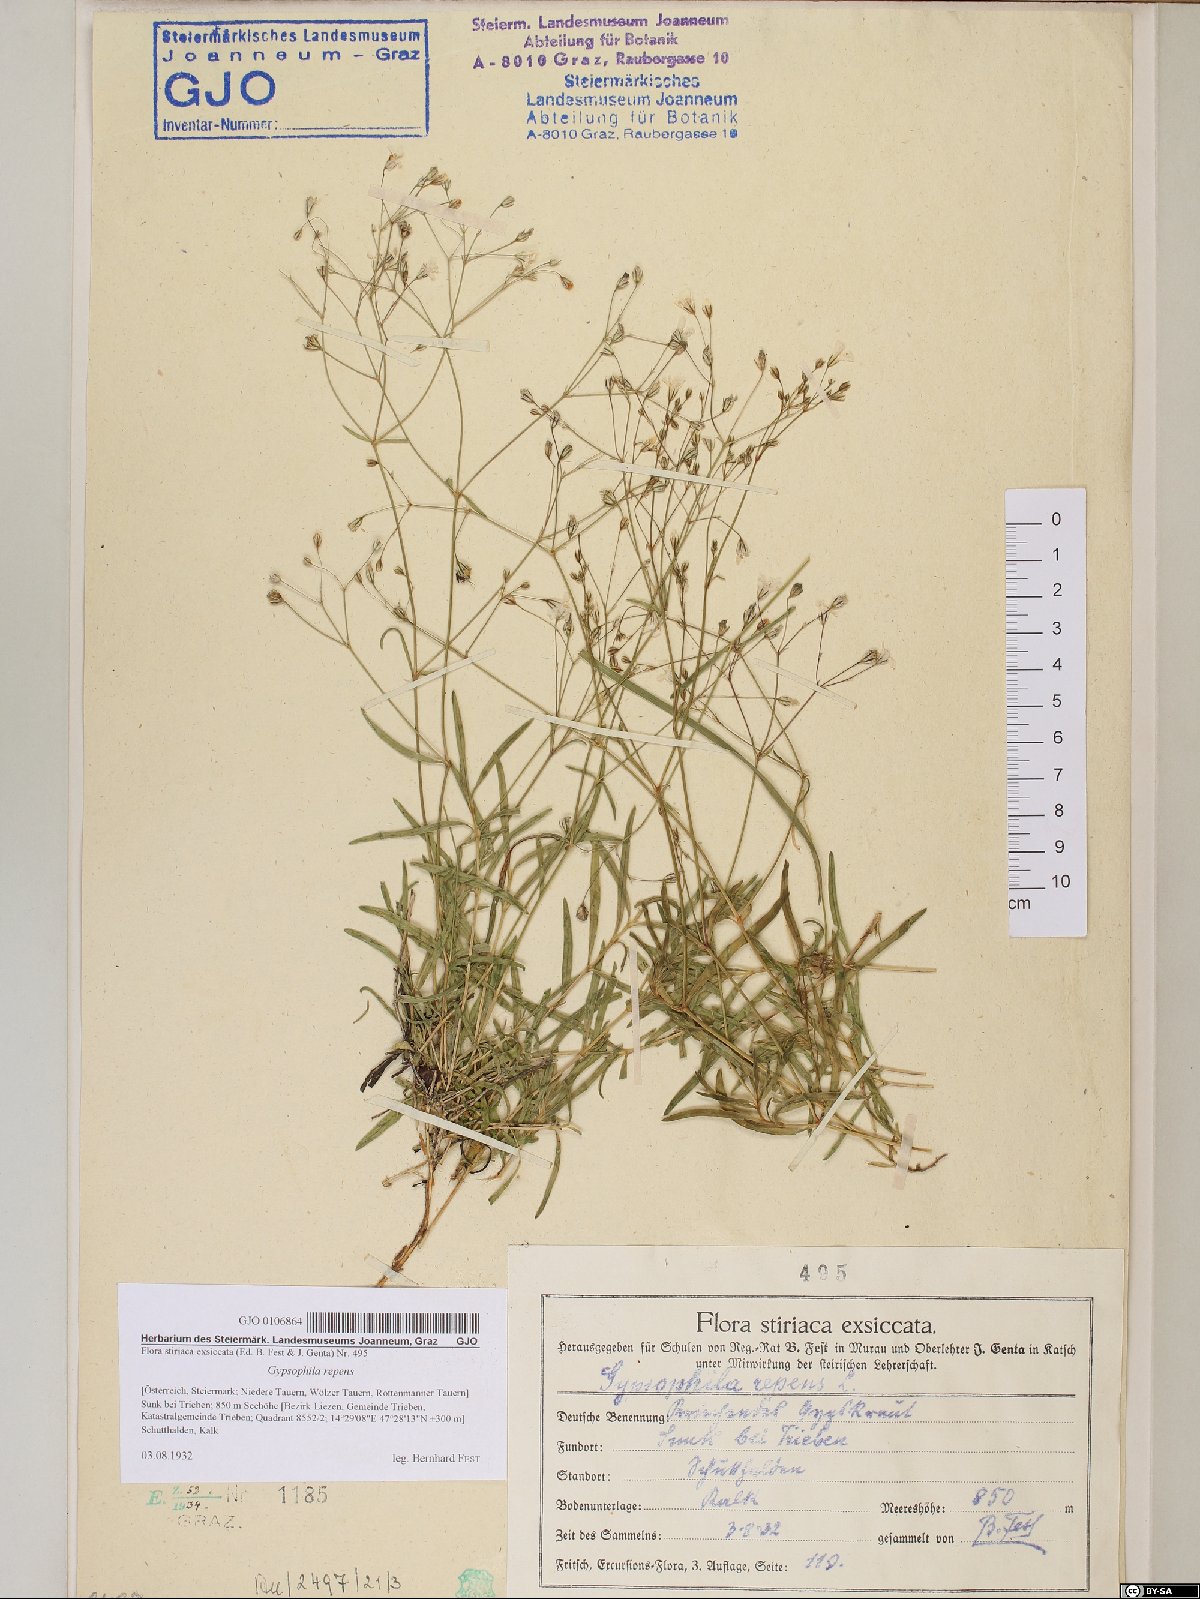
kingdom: Plantae
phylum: Tracheophyta
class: Magnoliopsida
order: Caryophyllales
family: Caryophyllaceae
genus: Gypsophila
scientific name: Gypsophila repens
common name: Creeping baby's-breath
